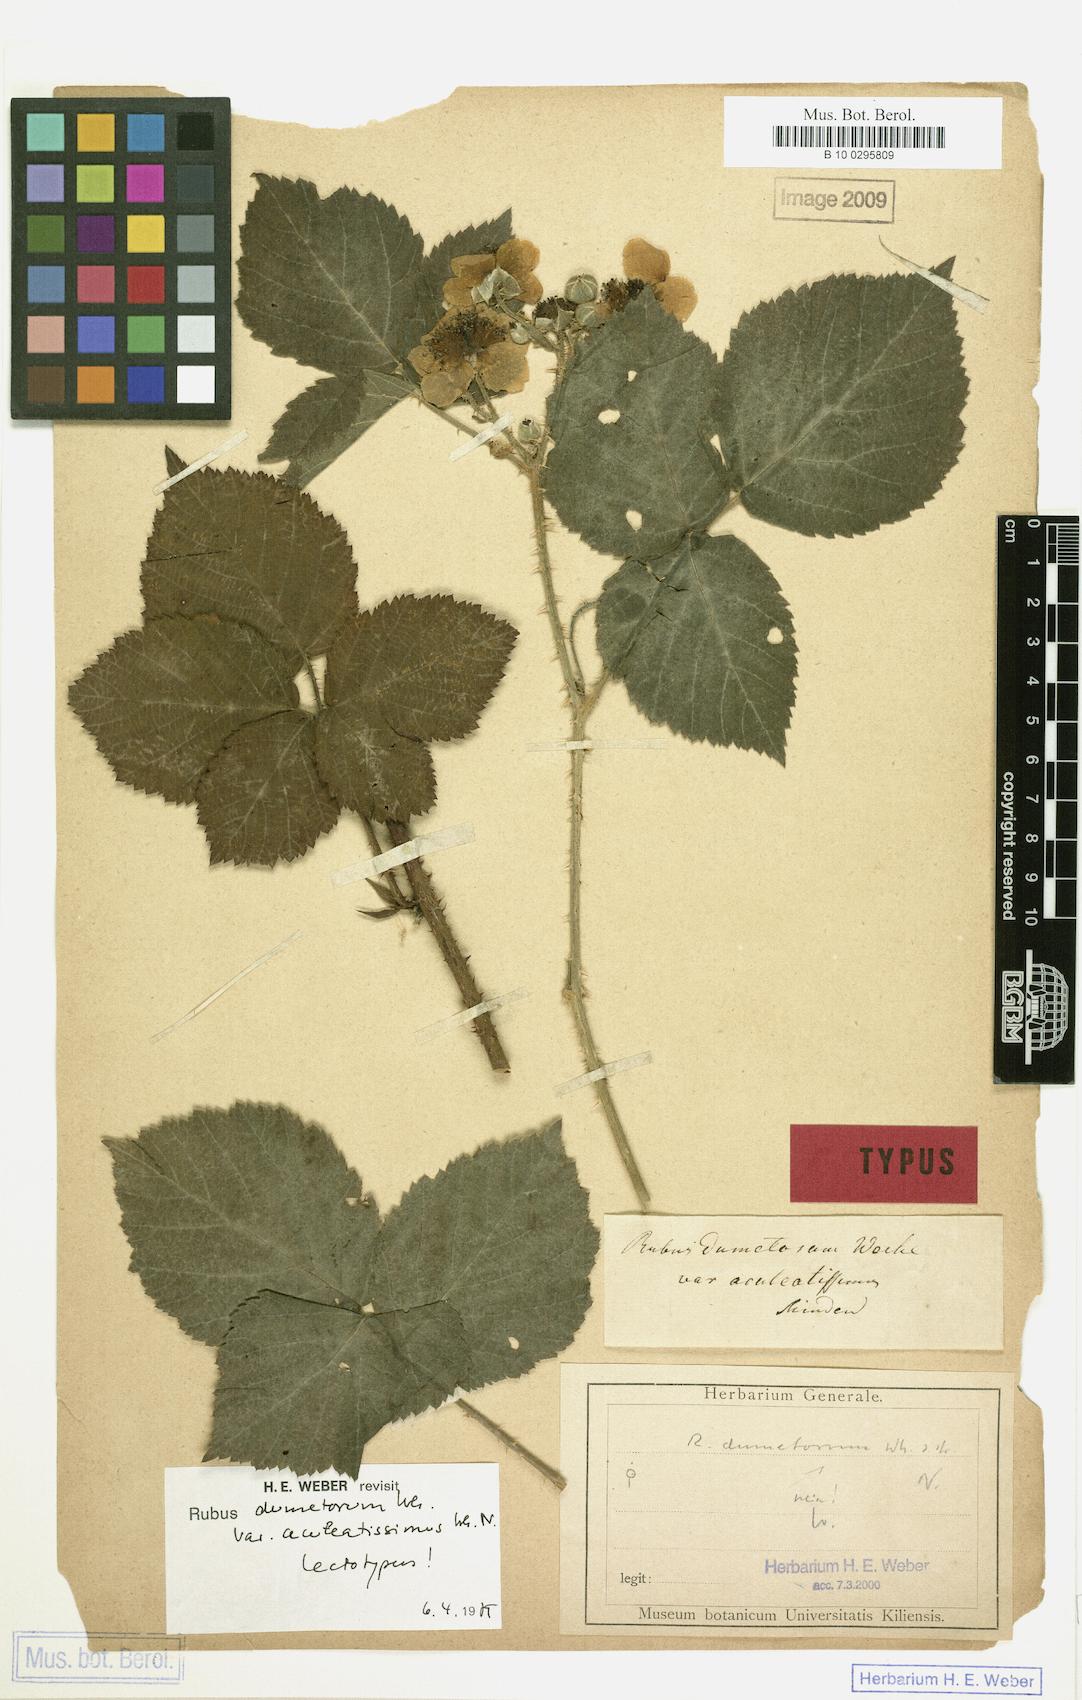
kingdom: Plantae
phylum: Tracheophyta
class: Magnoliopsida
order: Rosales
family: Rosaceae
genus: Rubus
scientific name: Rubus
